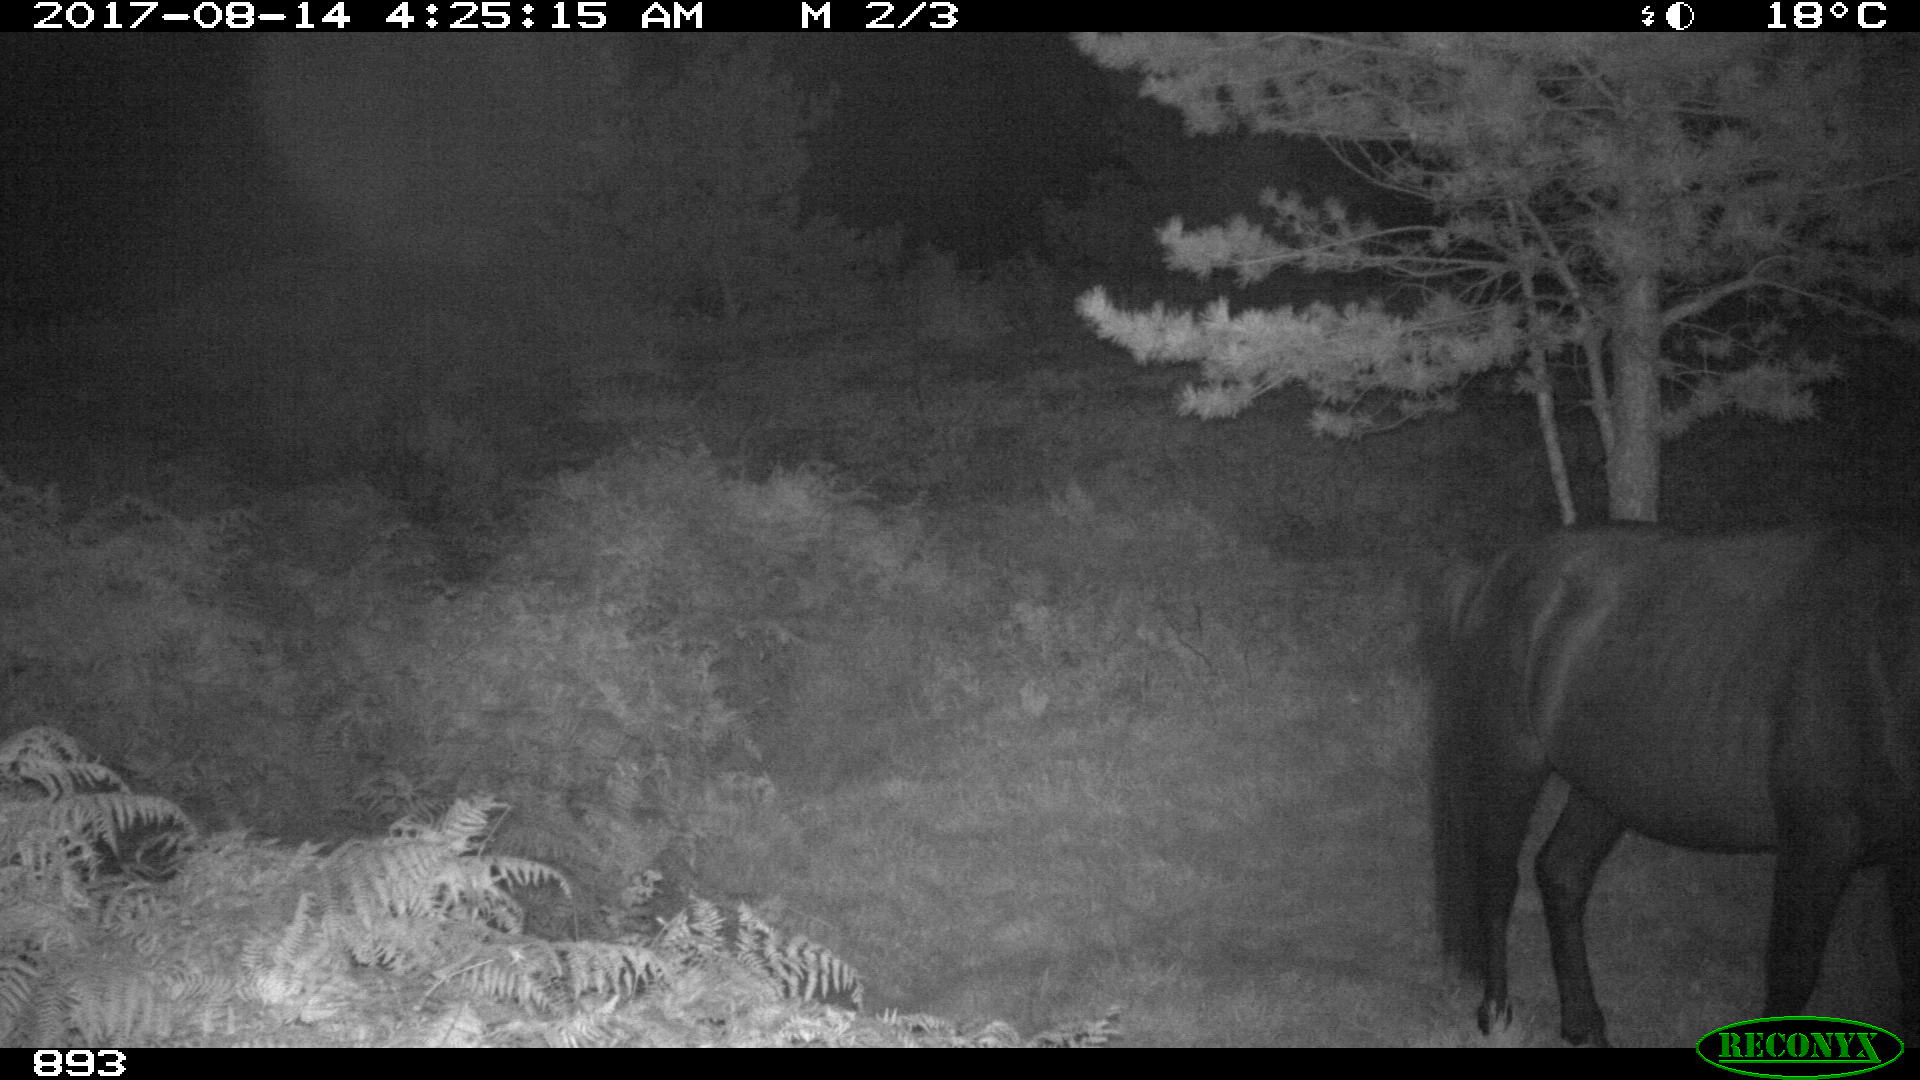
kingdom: Animalia
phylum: Chordata
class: Mammalia
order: Perissodactyla
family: Equidae
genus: Equus
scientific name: Equus caballus
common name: Horse
